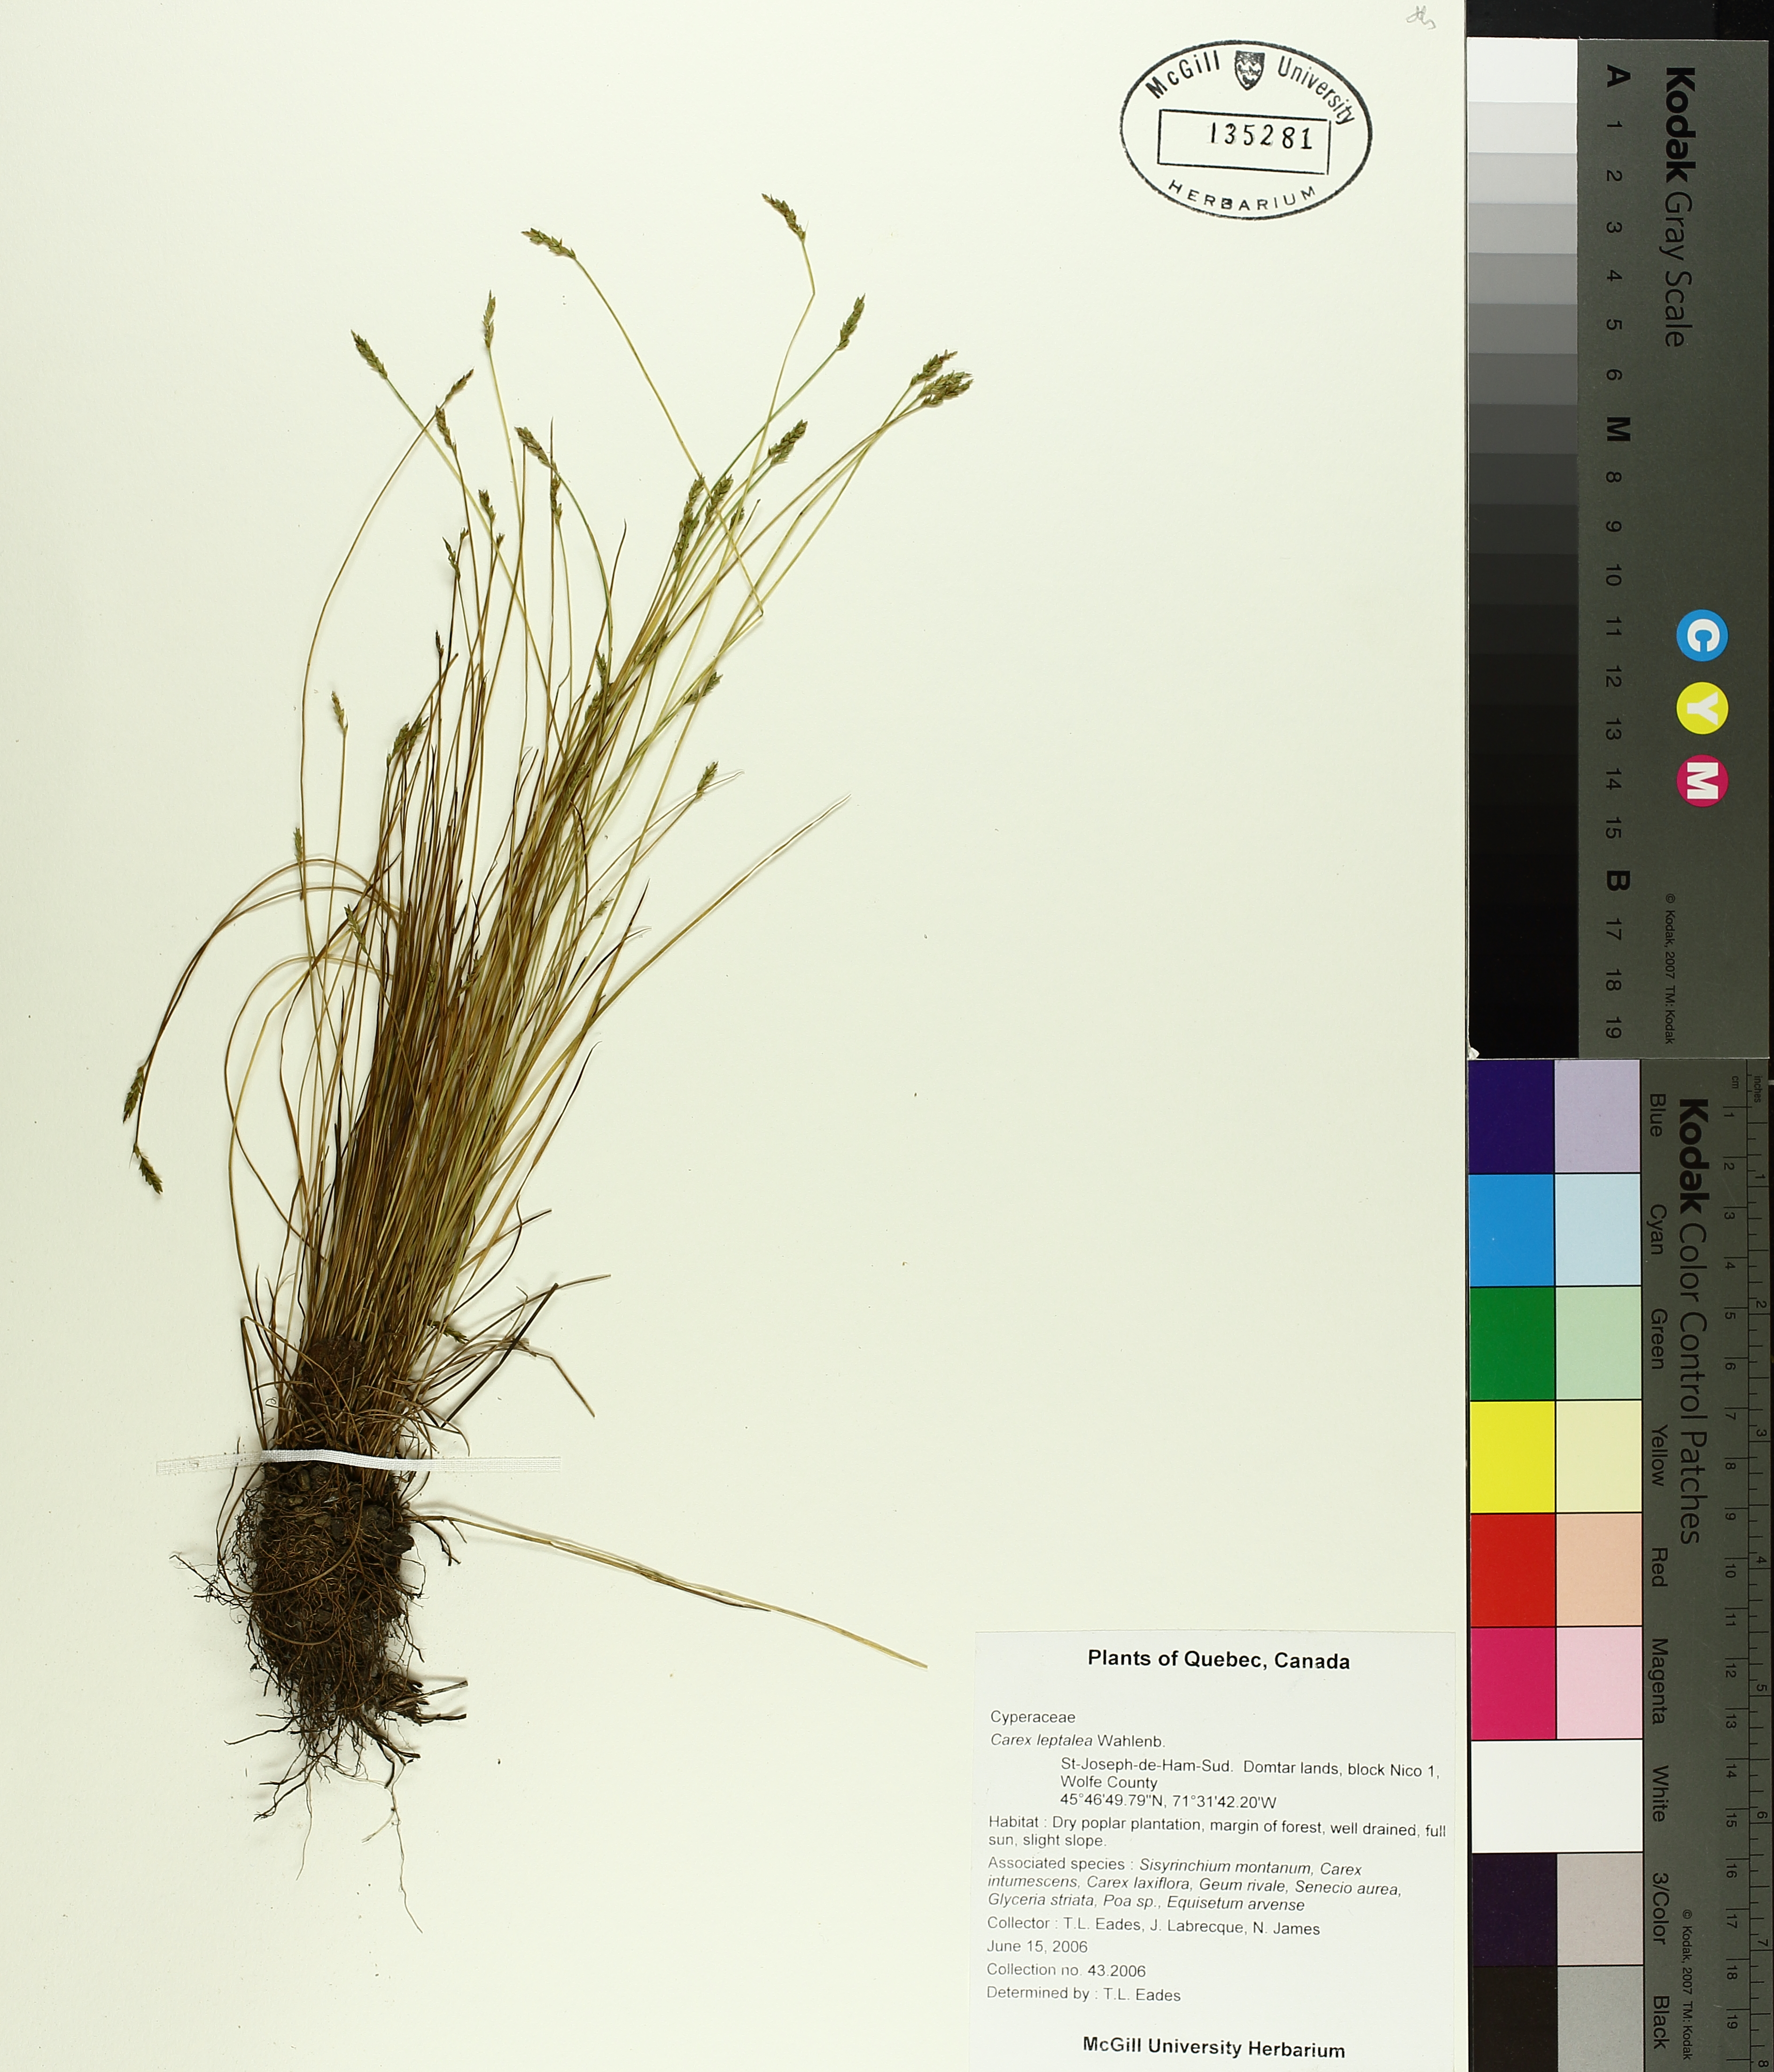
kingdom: Plantae
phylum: Tracheophyta
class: Liliopsida
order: Poales
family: Cyperaceae
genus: Carex
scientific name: Carex leptalea
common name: Bristly-stalked sedge
